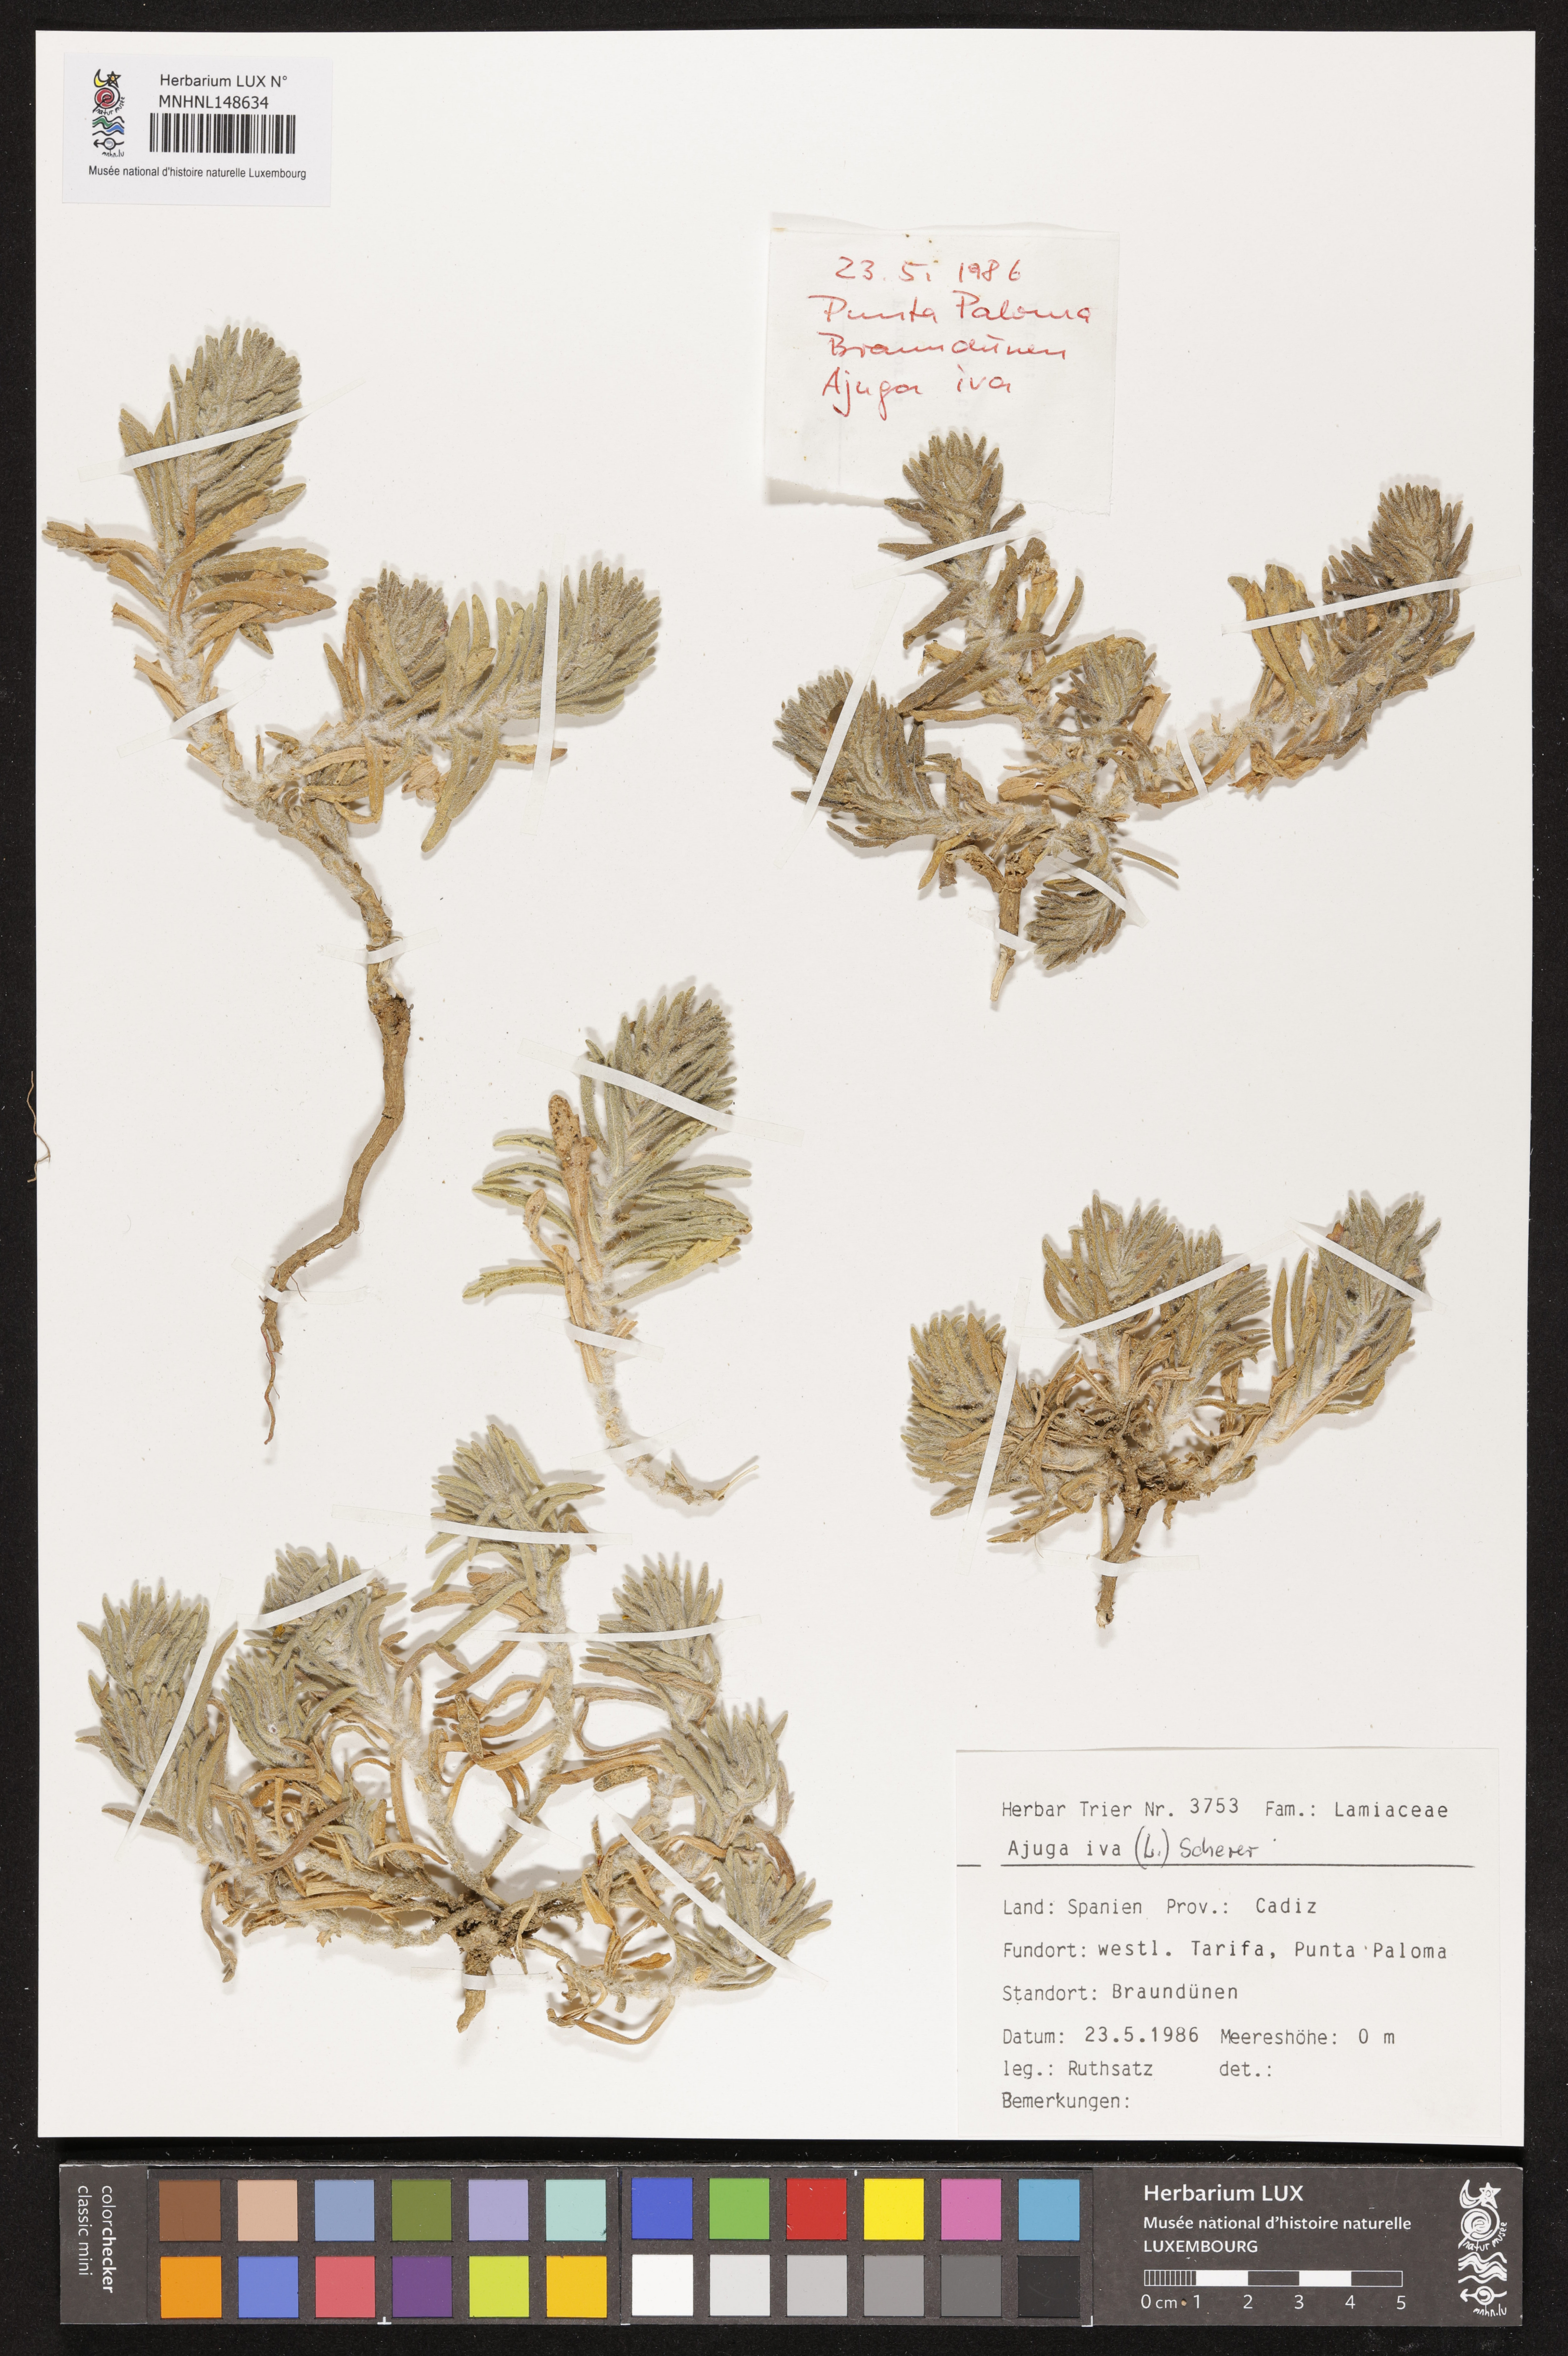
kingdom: Plantae
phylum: Tracheophyta
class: Magnoliopsida
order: Lamiales
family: Lamiaceae
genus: Ajuga
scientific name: Ajuga iva
